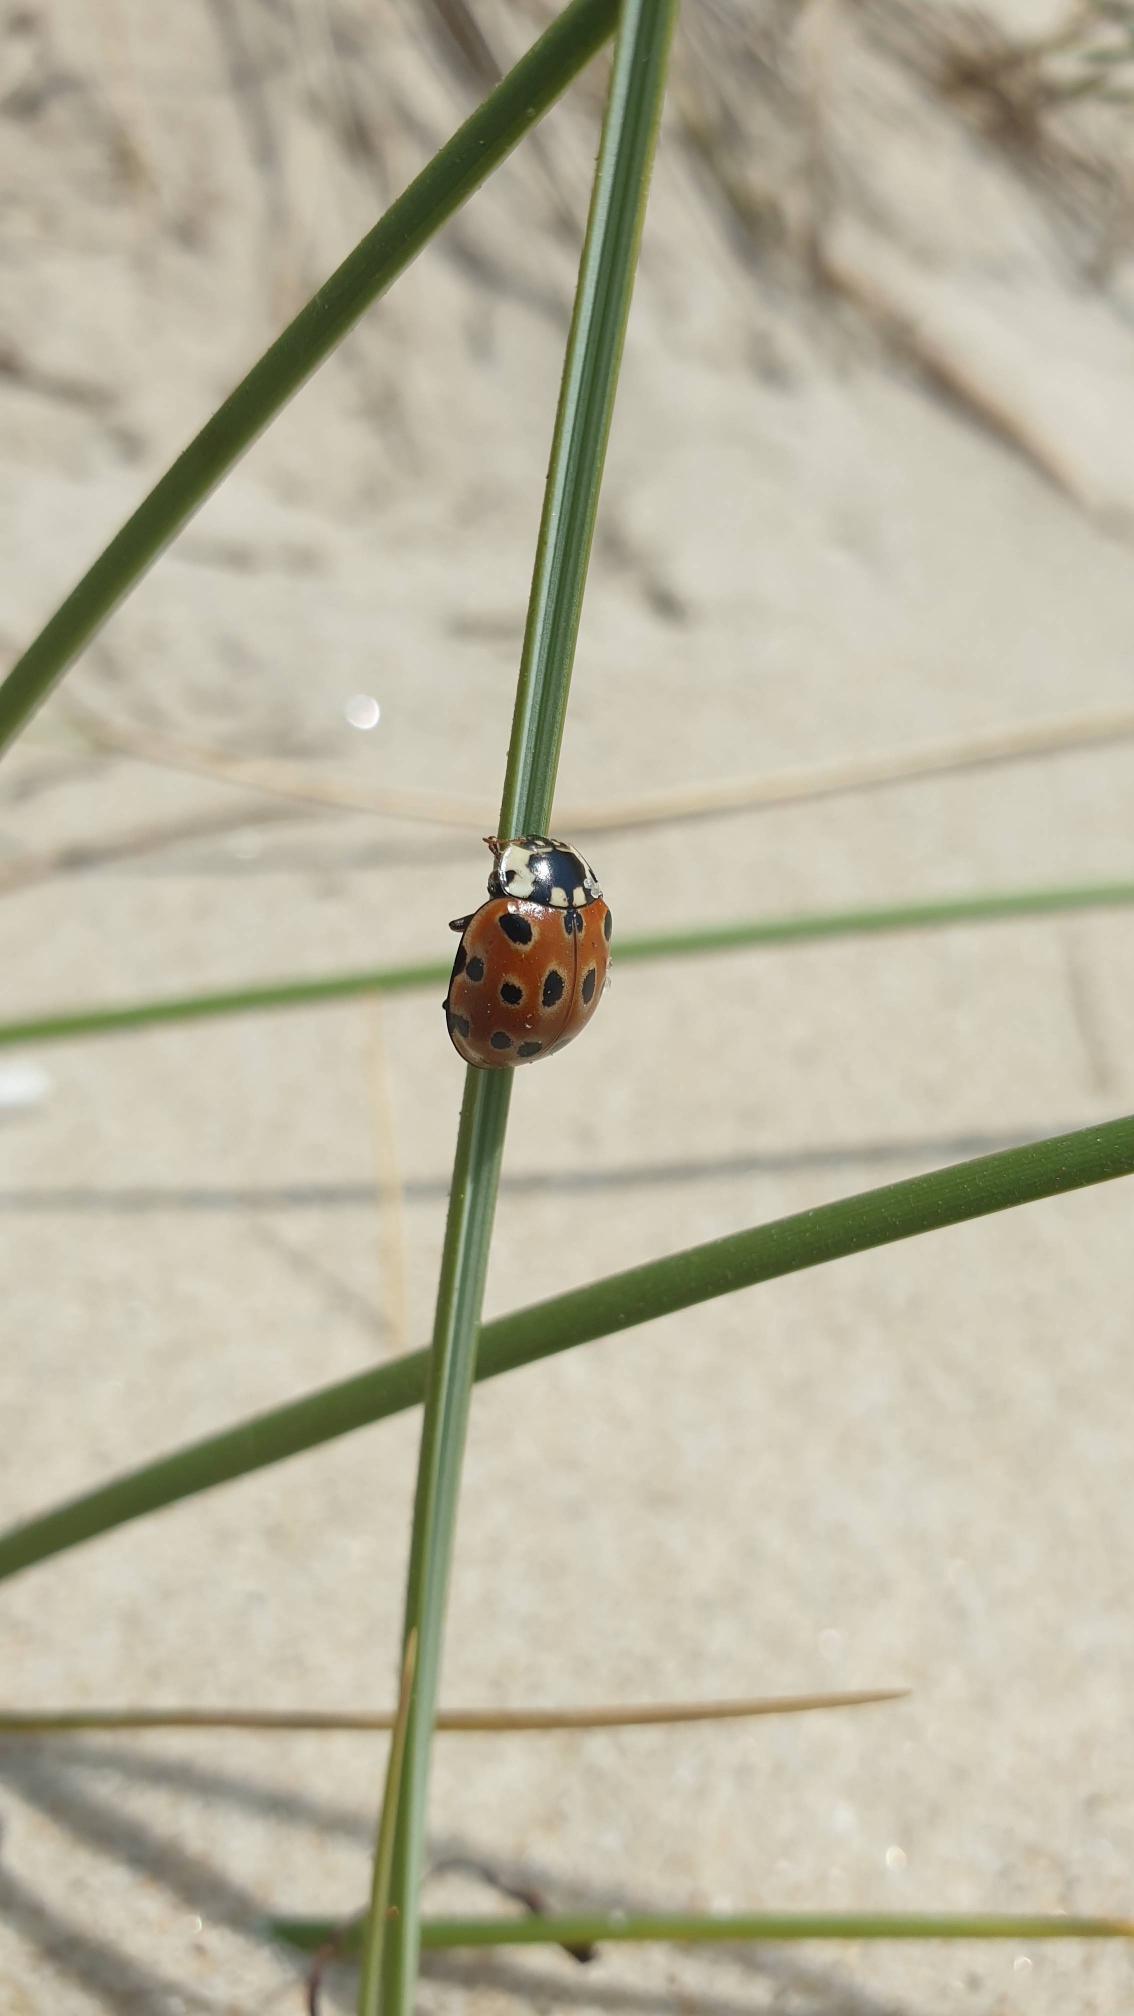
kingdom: Animalia
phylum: Arthropoda
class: Insecta
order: Coleoptera
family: Coccinellidae
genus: Anatis
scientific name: Anatis ocellata
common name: Øjeplettet mariehøne
